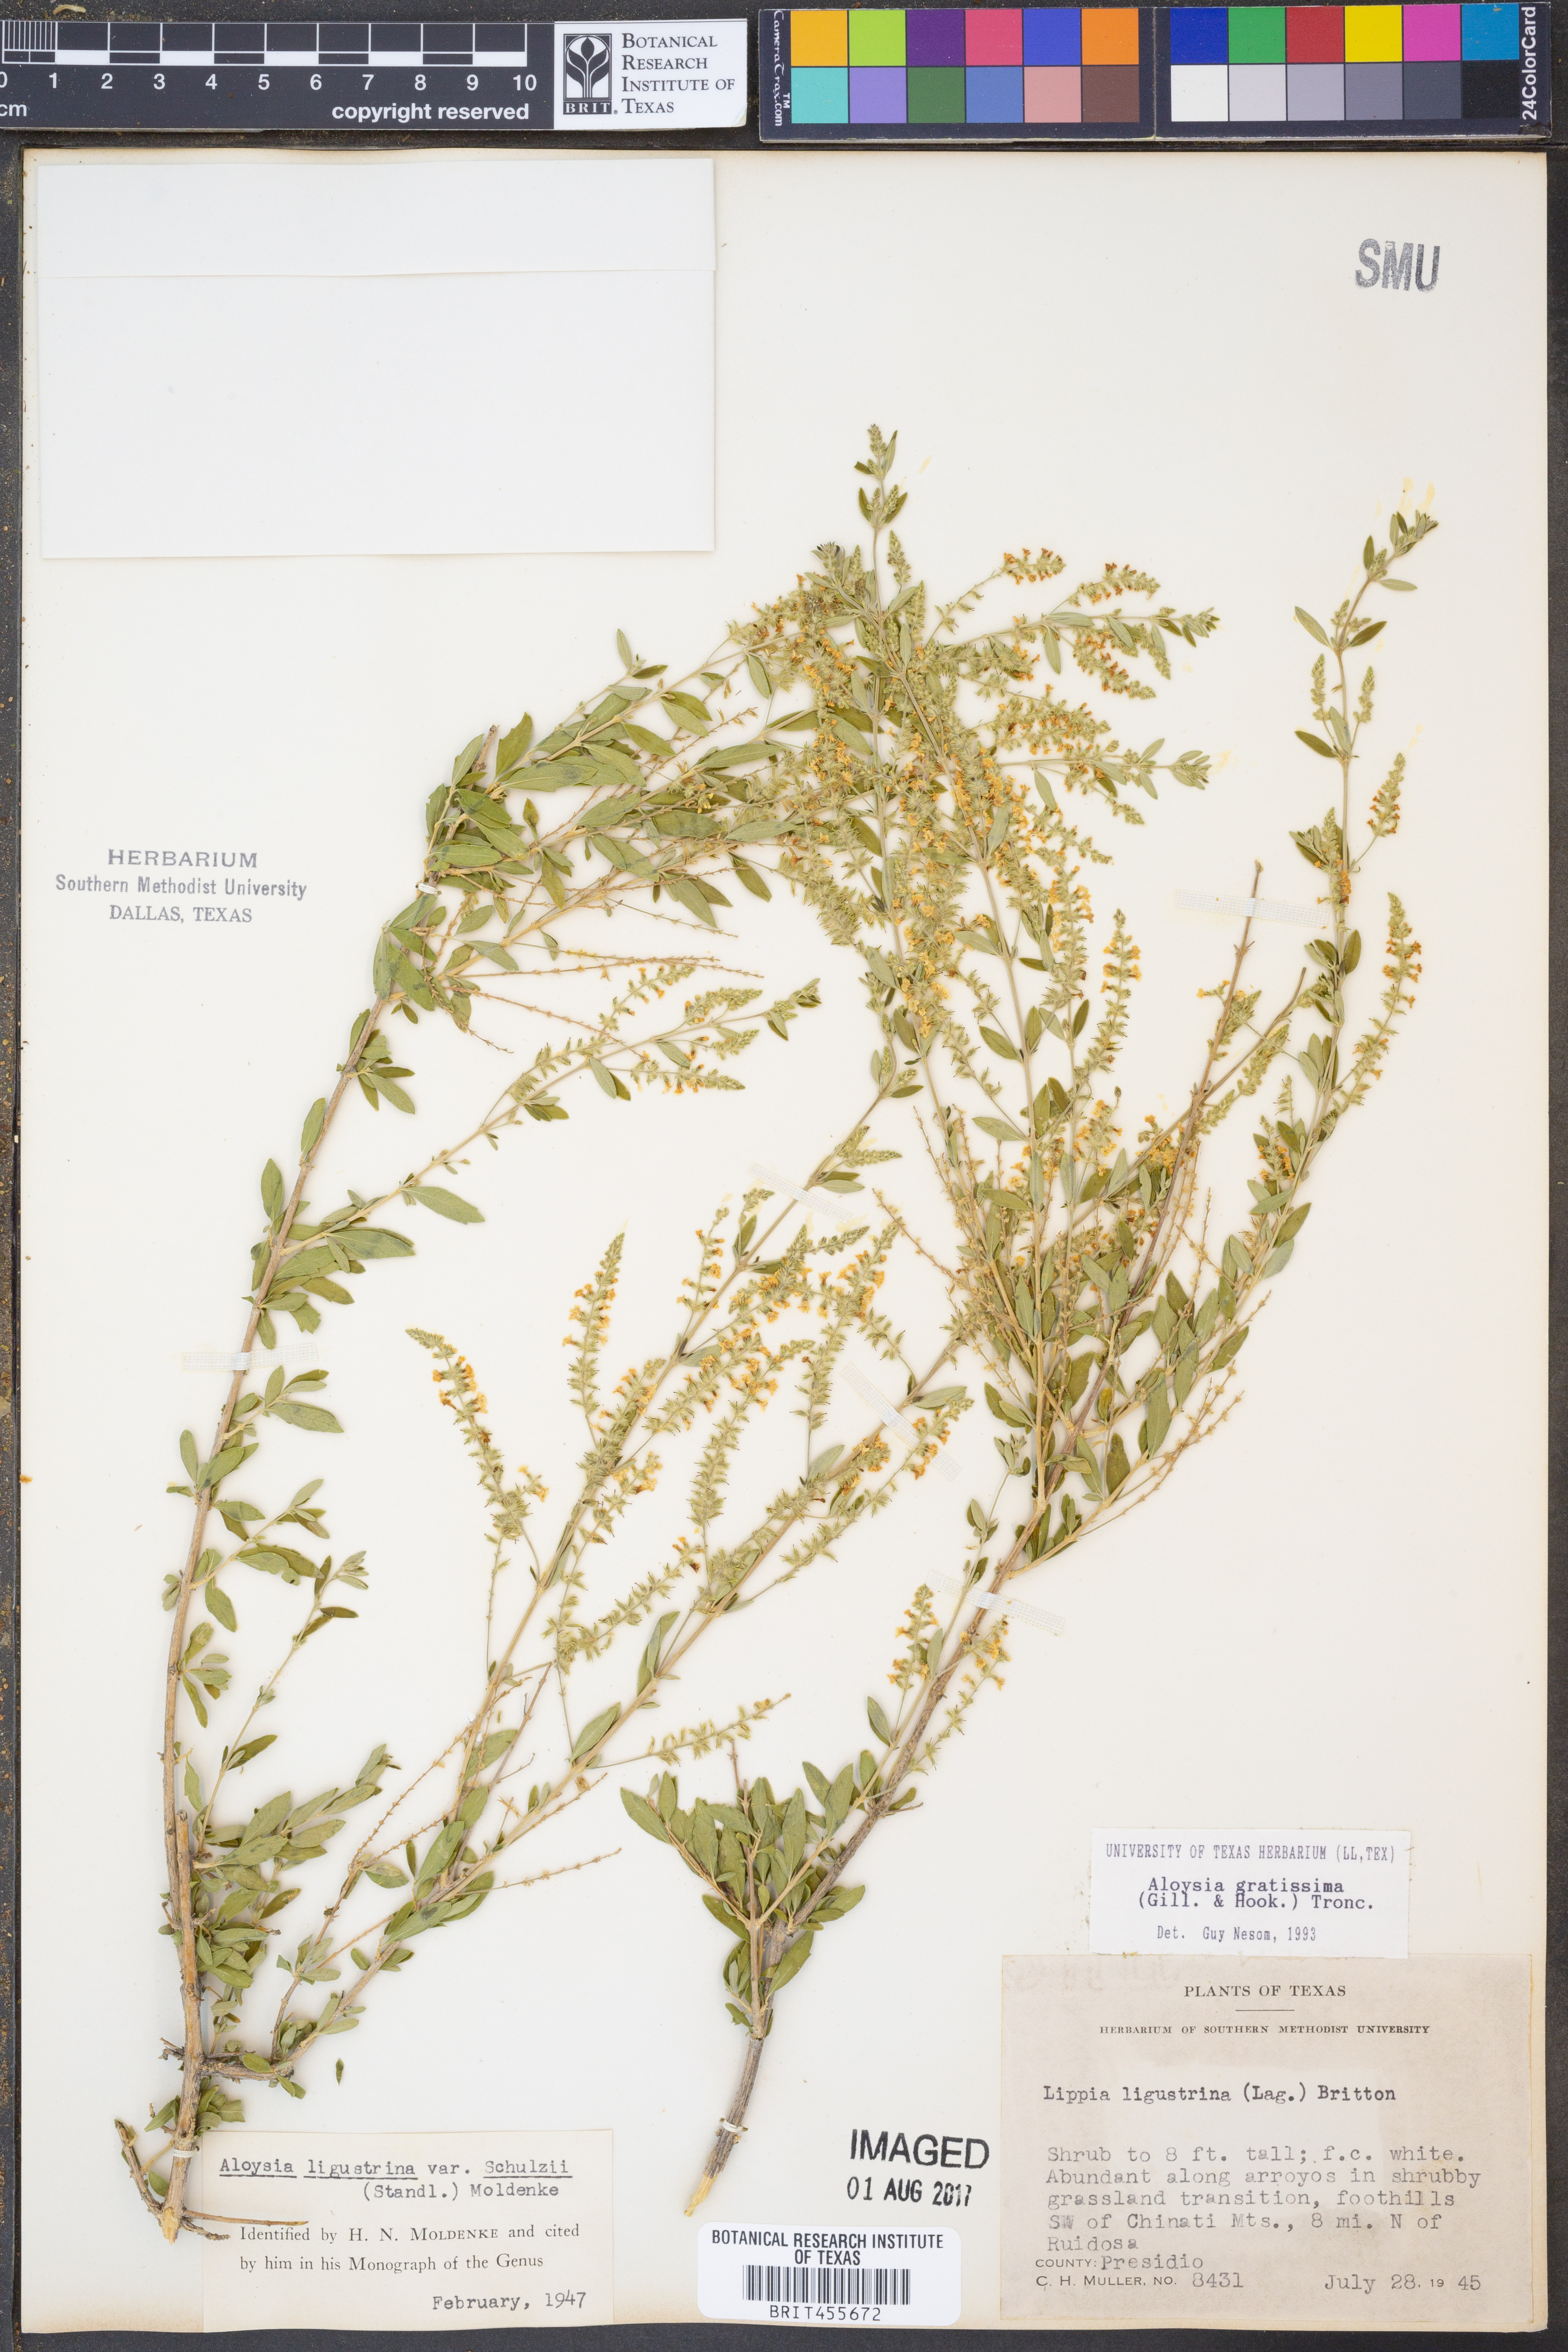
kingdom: Plantae
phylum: Tracheophyta
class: Magnoliopsida
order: Lamiales
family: Verbenaceae
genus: Aloysia
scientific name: Aloysia gratissima
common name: Common bee-brush
